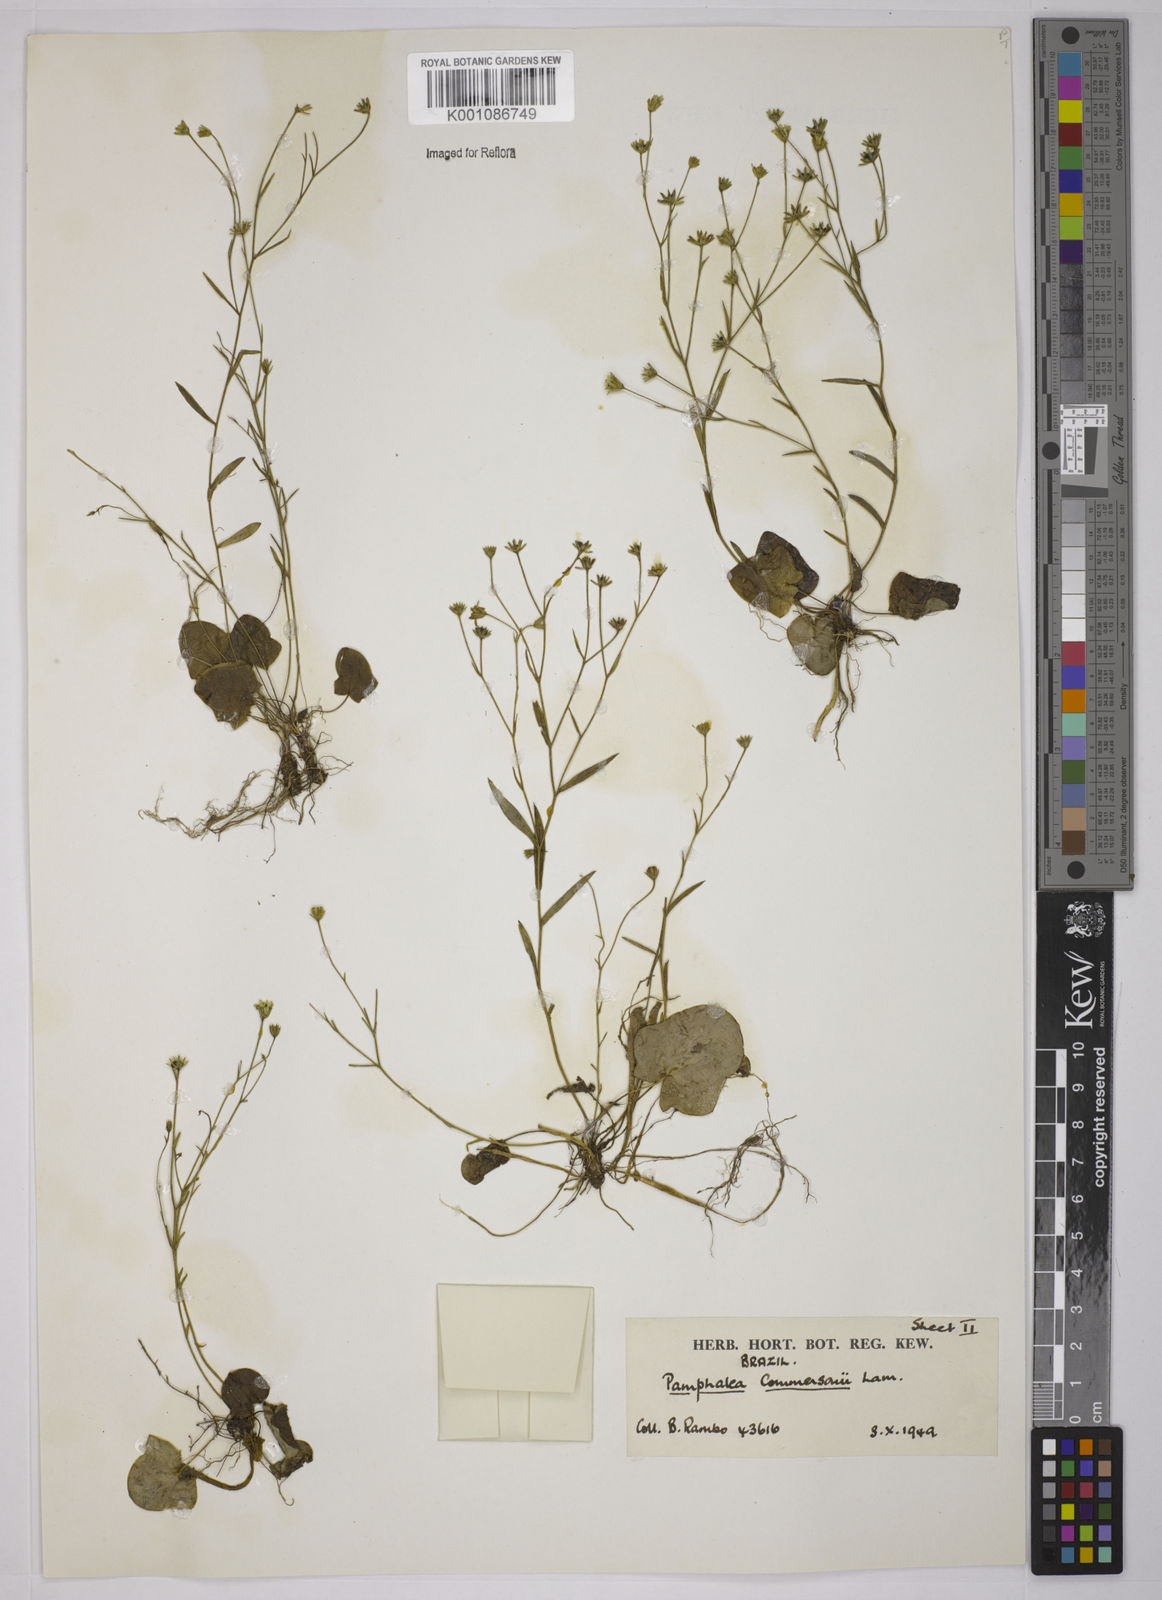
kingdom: Plantae
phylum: Tracheophyta
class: Magnoliopsida
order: Asterales
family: Asteraceae
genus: Pamphalea
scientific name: Pamphalea
